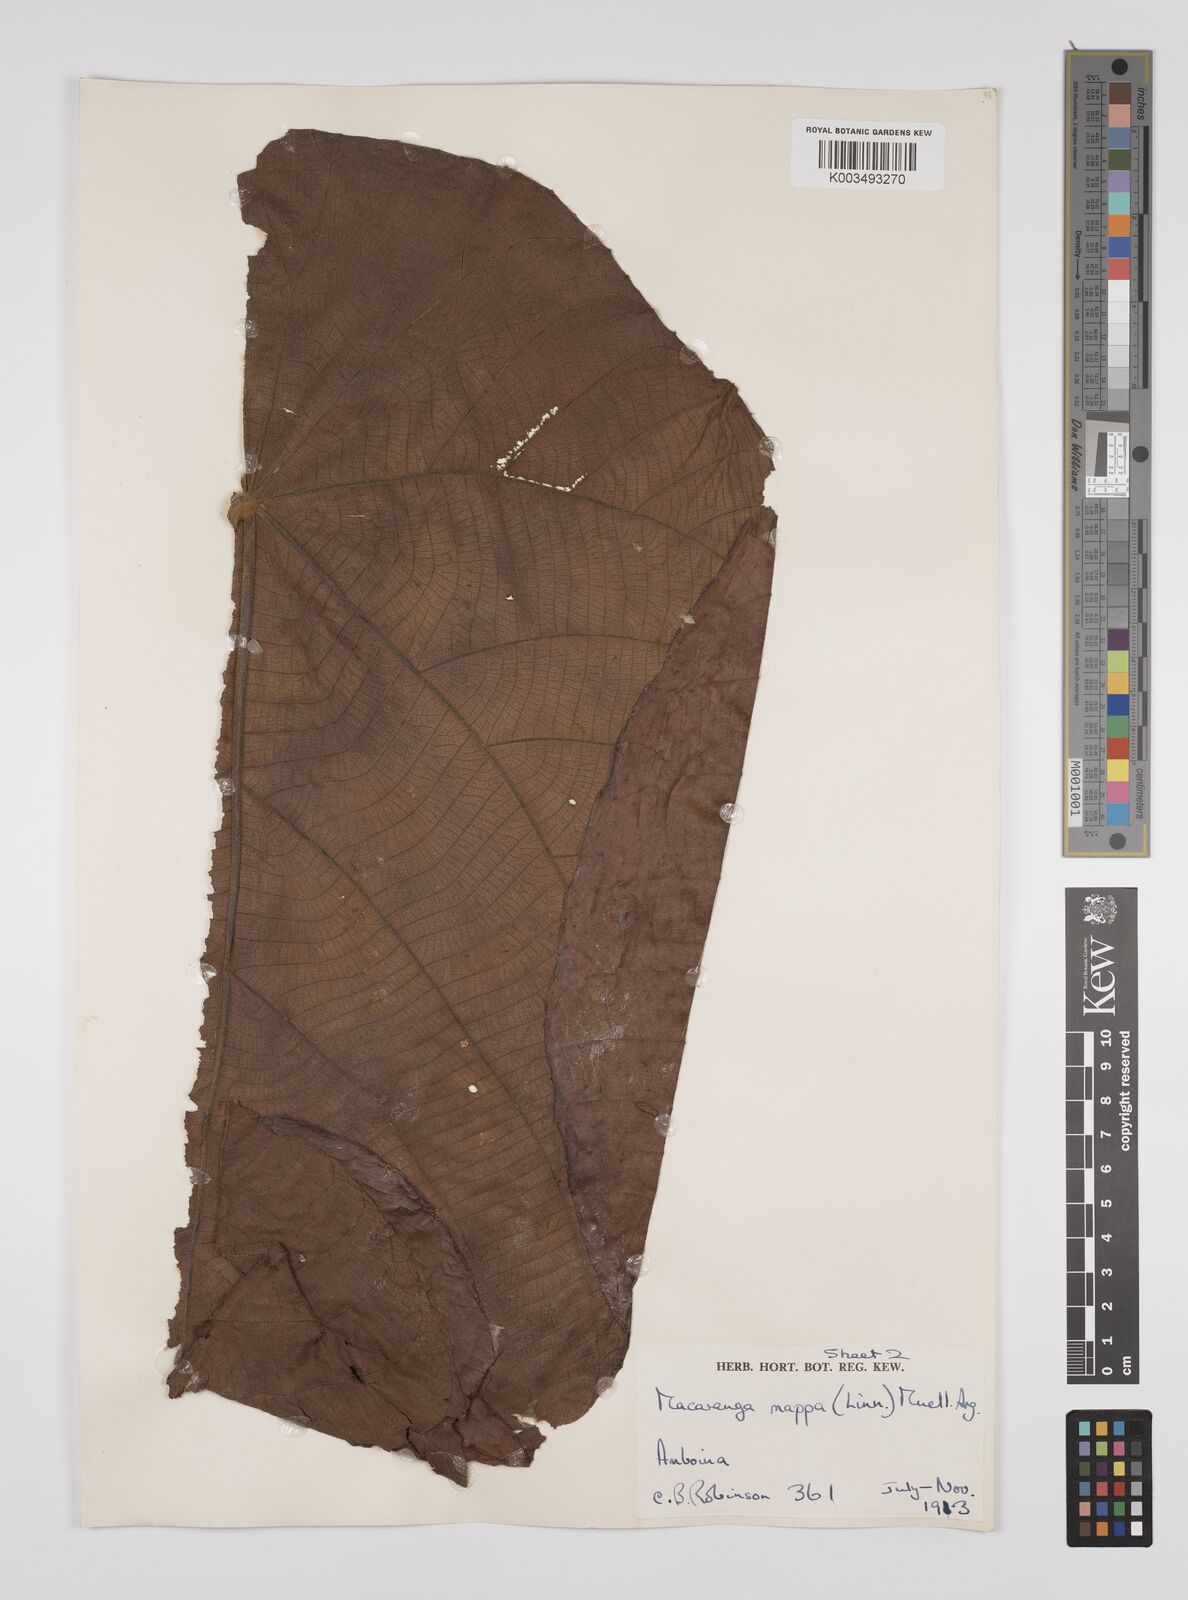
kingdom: Plantae
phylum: Tracheophyta
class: Magnoliopsida
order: Malpighiales
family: Euphorbiaceae
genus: Macaranga
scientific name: Macaranga mappa
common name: Pengua
